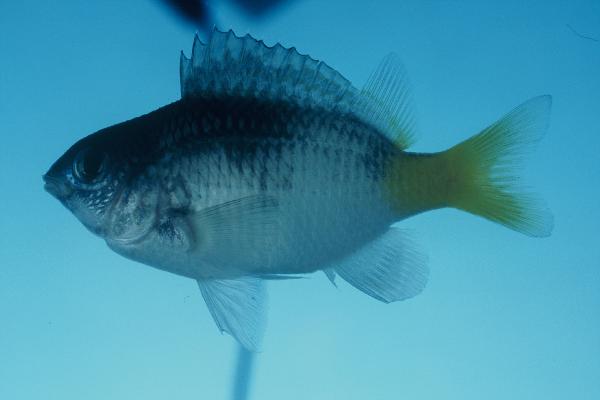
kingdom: Animalia
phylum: Chordata
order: Perciformes
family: Pomacentridae
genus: Plectroglyphidodon
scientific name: Plectroglyphidodon imparipennis
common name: Brighteye damsel
